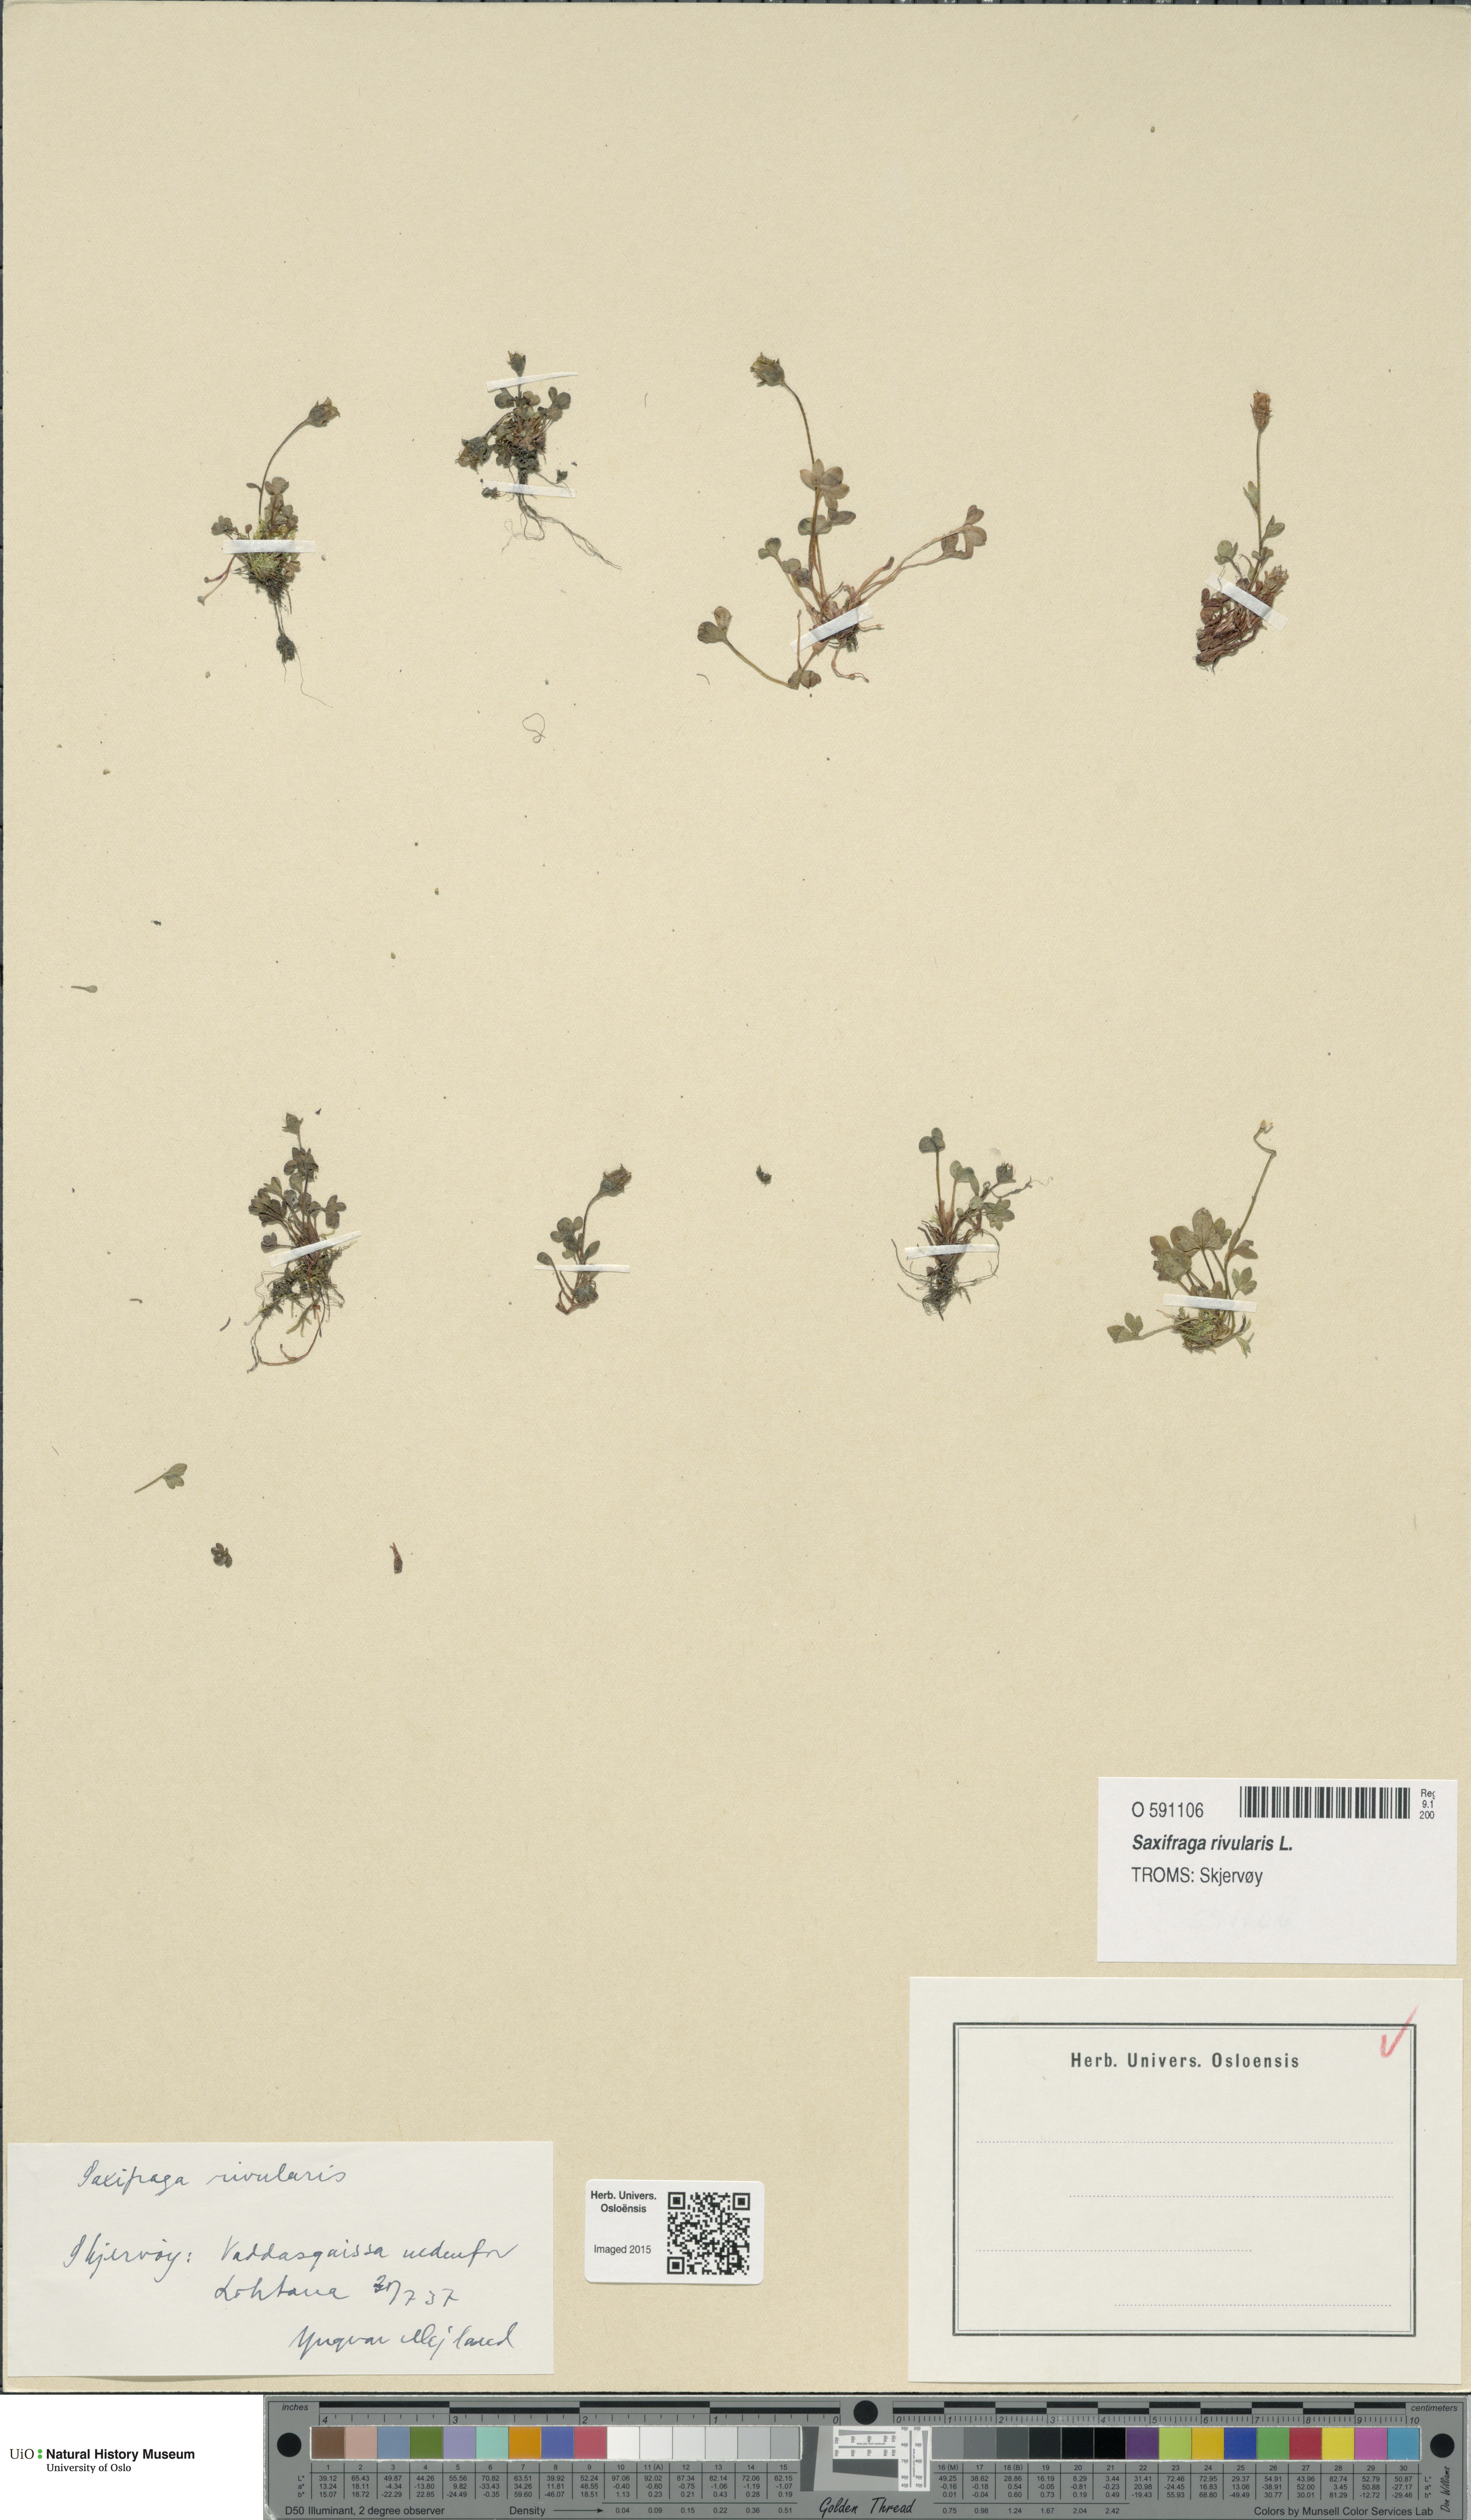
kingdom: Plantae
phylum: Tracheophyta
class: Magnoliopsida
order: Saxifragales
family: Saxifragaceae
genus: Saxifraga
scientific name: Saxifraga rivularis
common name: Highland saxifrage
